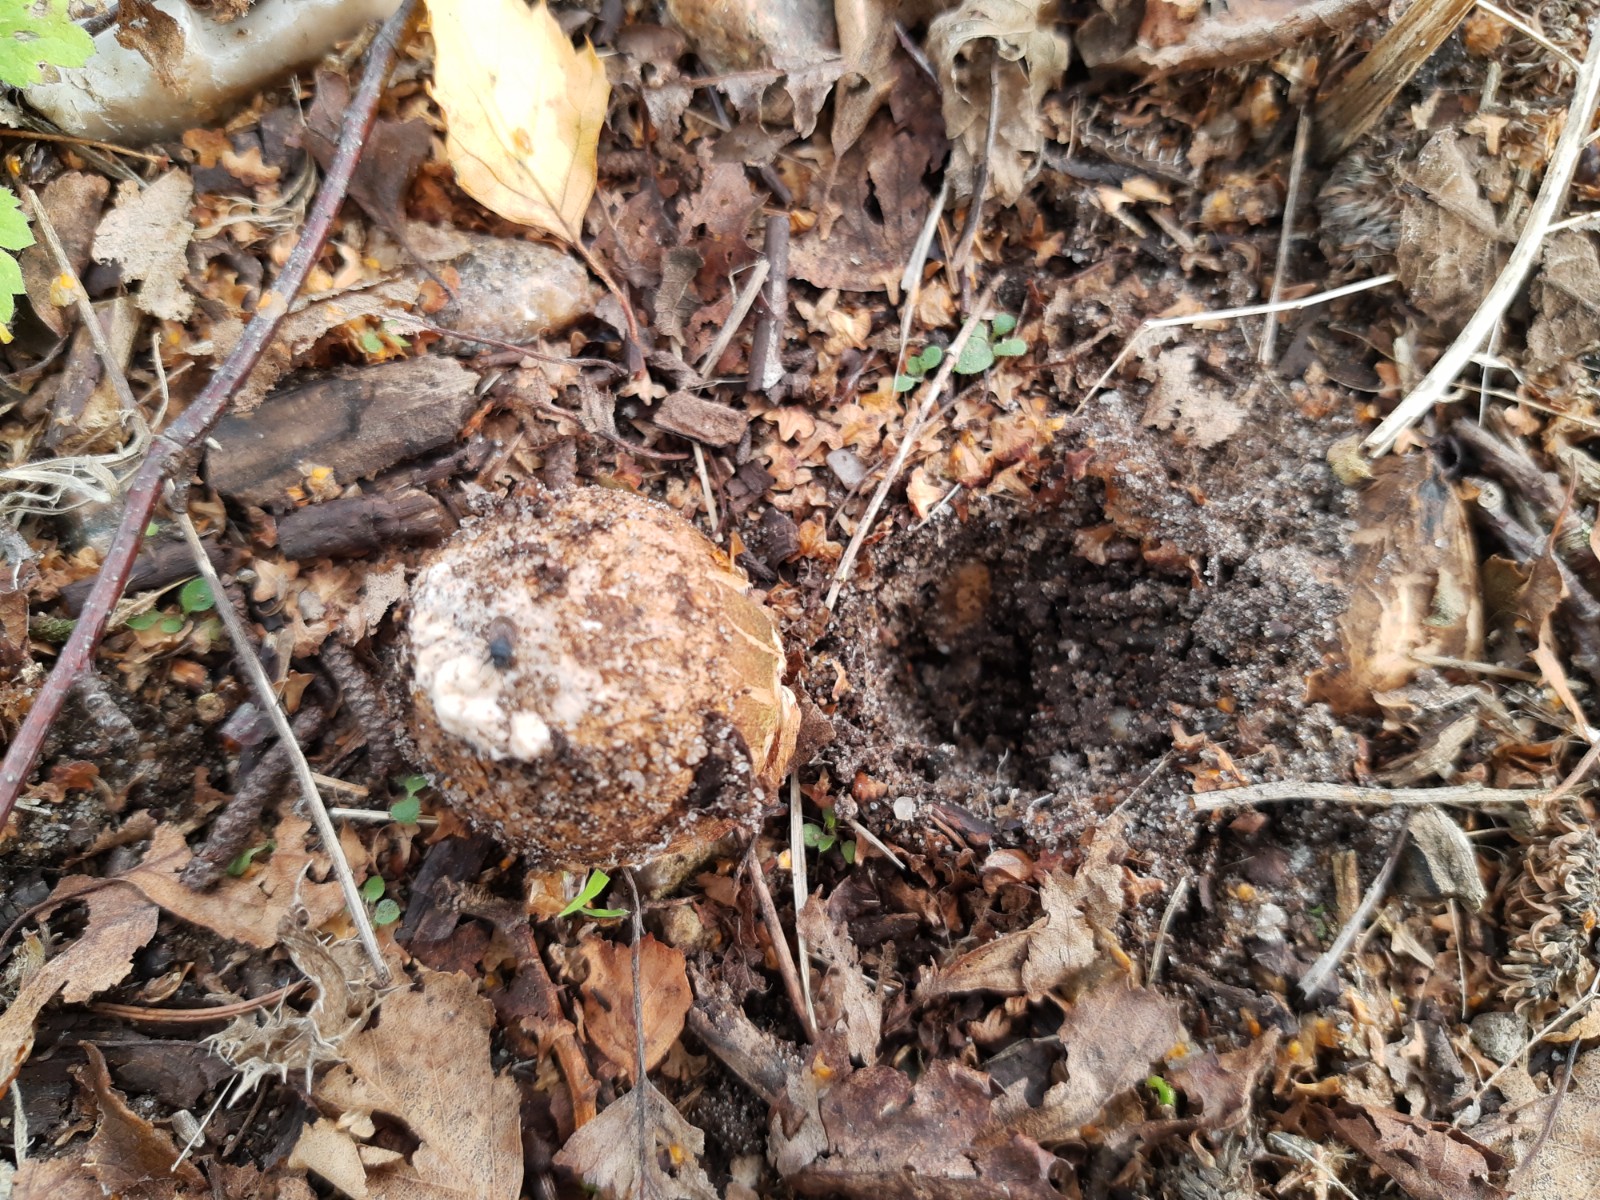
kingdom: Fungi
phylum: Basidiomycota
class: Agaricomycetes
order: Geastrales
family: Geastraceae
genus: Geastrum
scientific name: Geastrum michelianum
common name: kødet stjernebold
